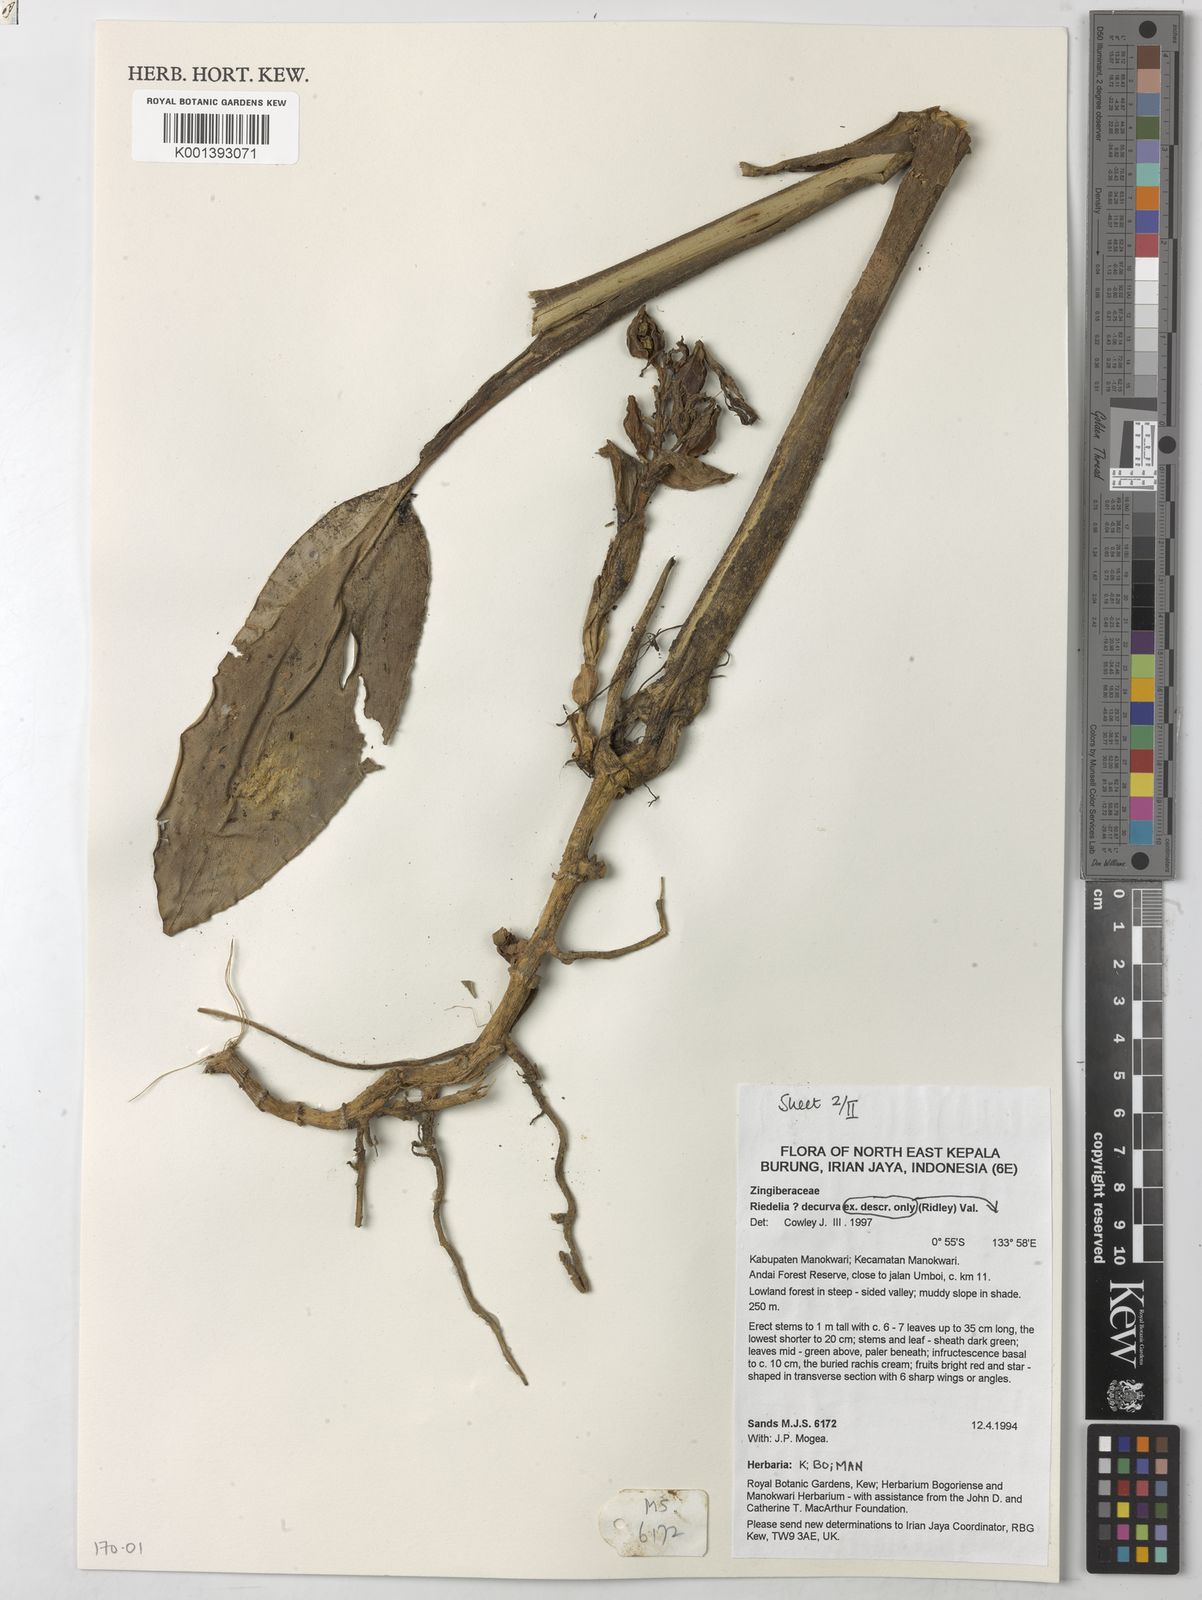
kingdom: Plantae
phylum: Tracheophyta
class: Liliopsida
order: Zingiberales
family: Zingiberaceae
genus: Riedelia
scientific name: Riedelia decurva
